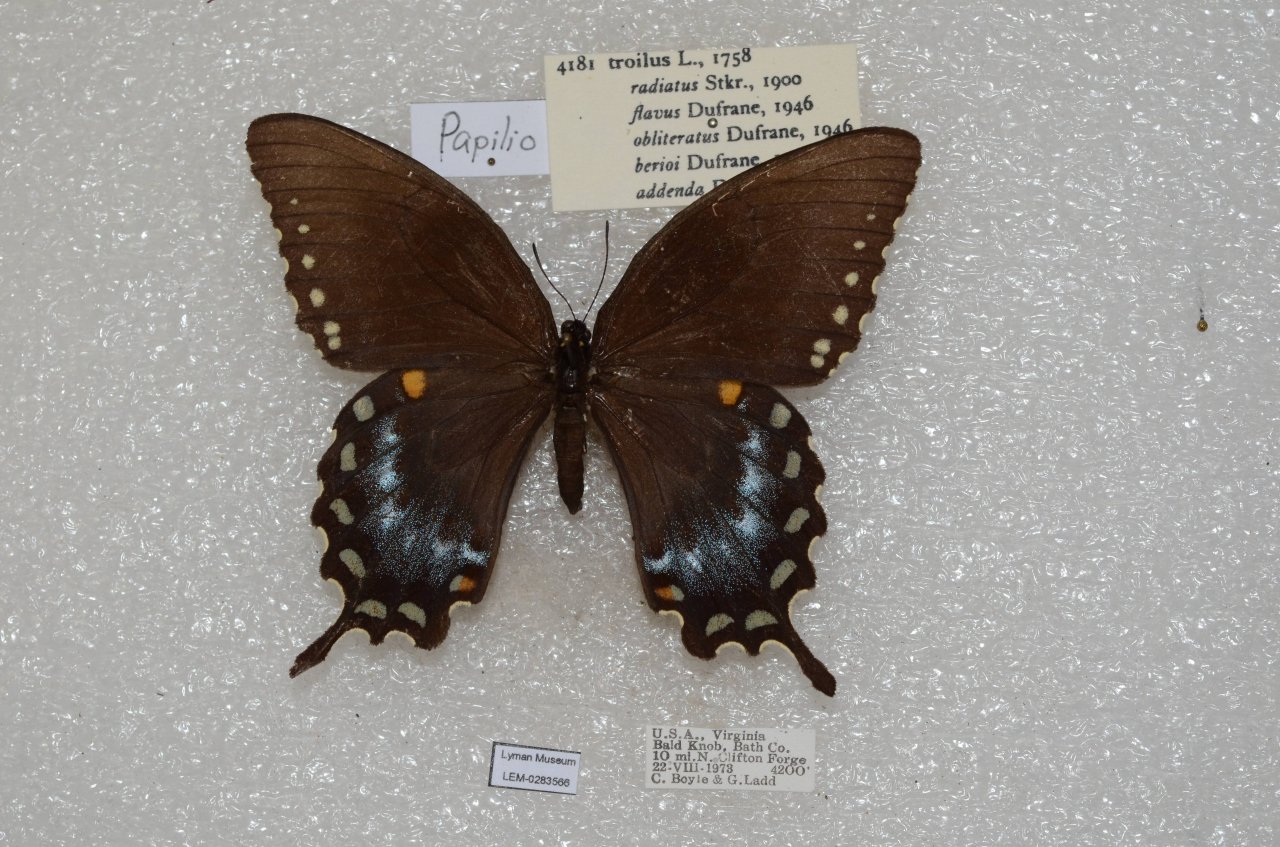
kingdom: Animalia
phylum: Arthropoda
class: Insecta
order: Lepidoptera
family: Papilionidae
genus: Pterourus
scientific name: Pterourus troilus
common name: Spicebush Swallowtail
